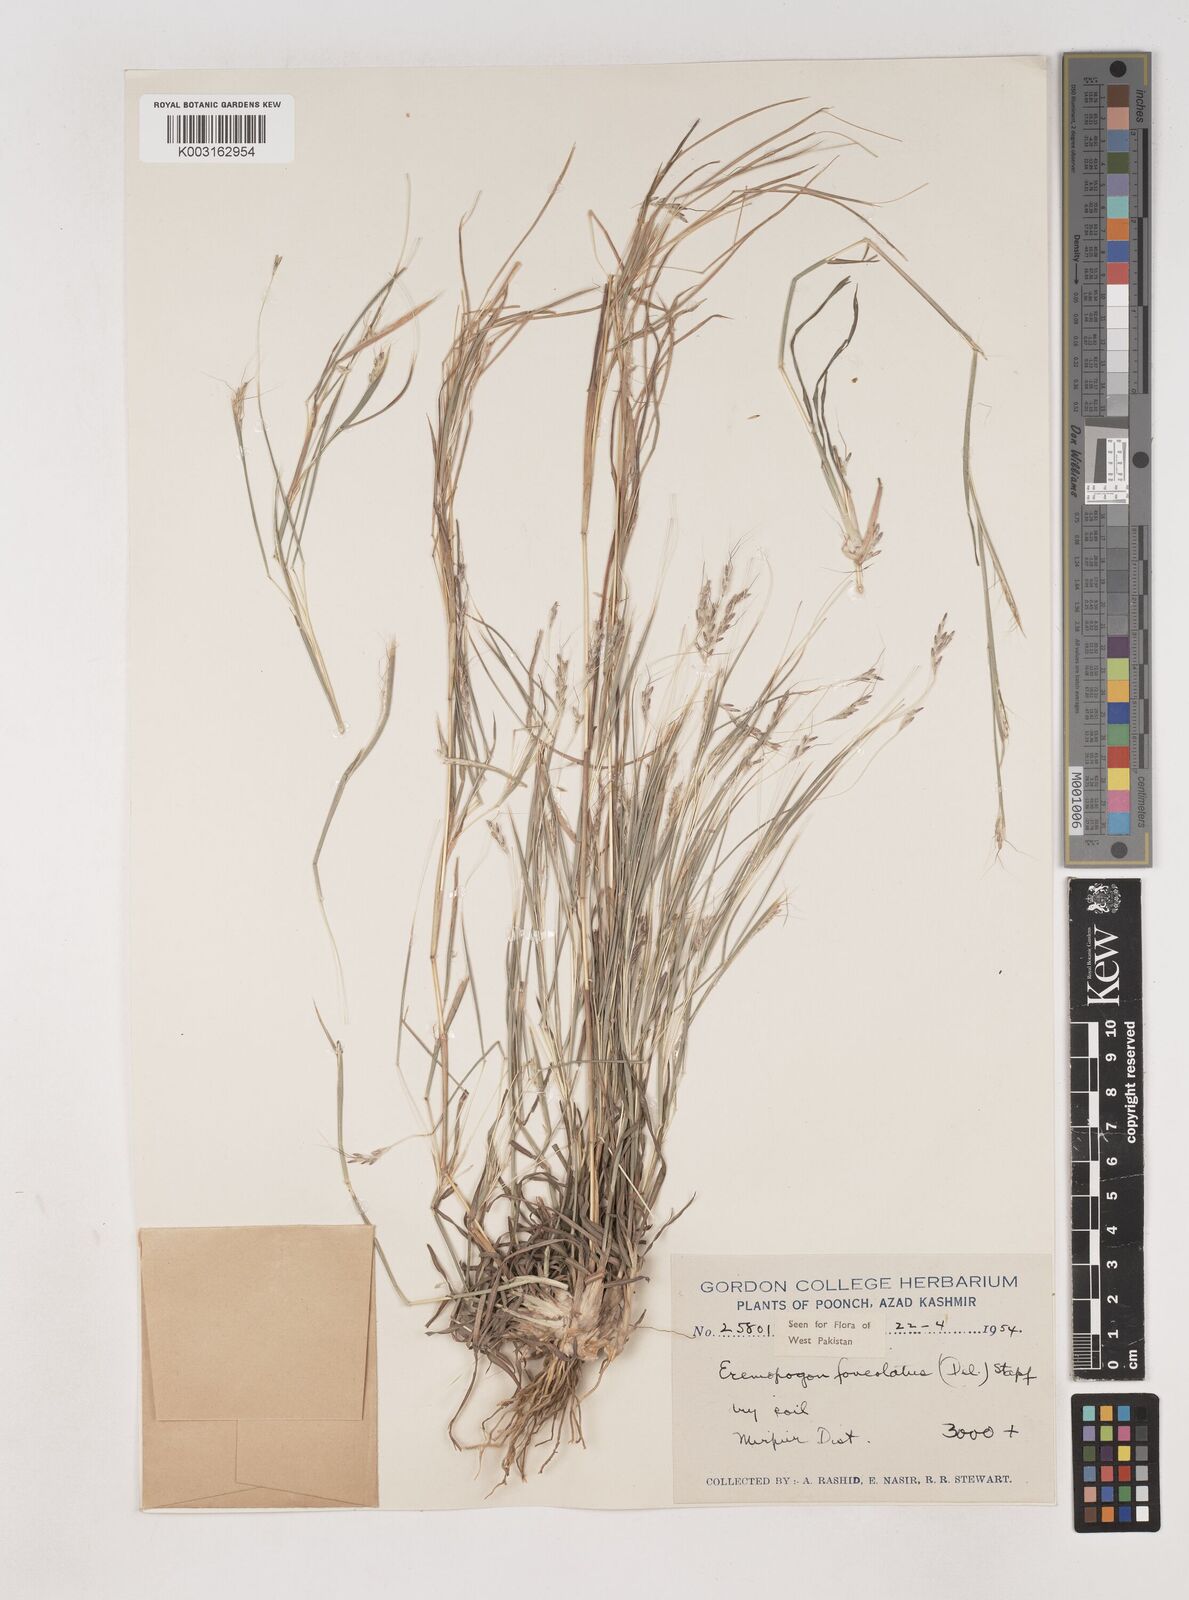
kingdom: Plantae
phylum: Tracheophyta
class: Liliopsida
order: Poales
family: Poaceae
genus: Dichanthium
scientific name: Dichanthium
